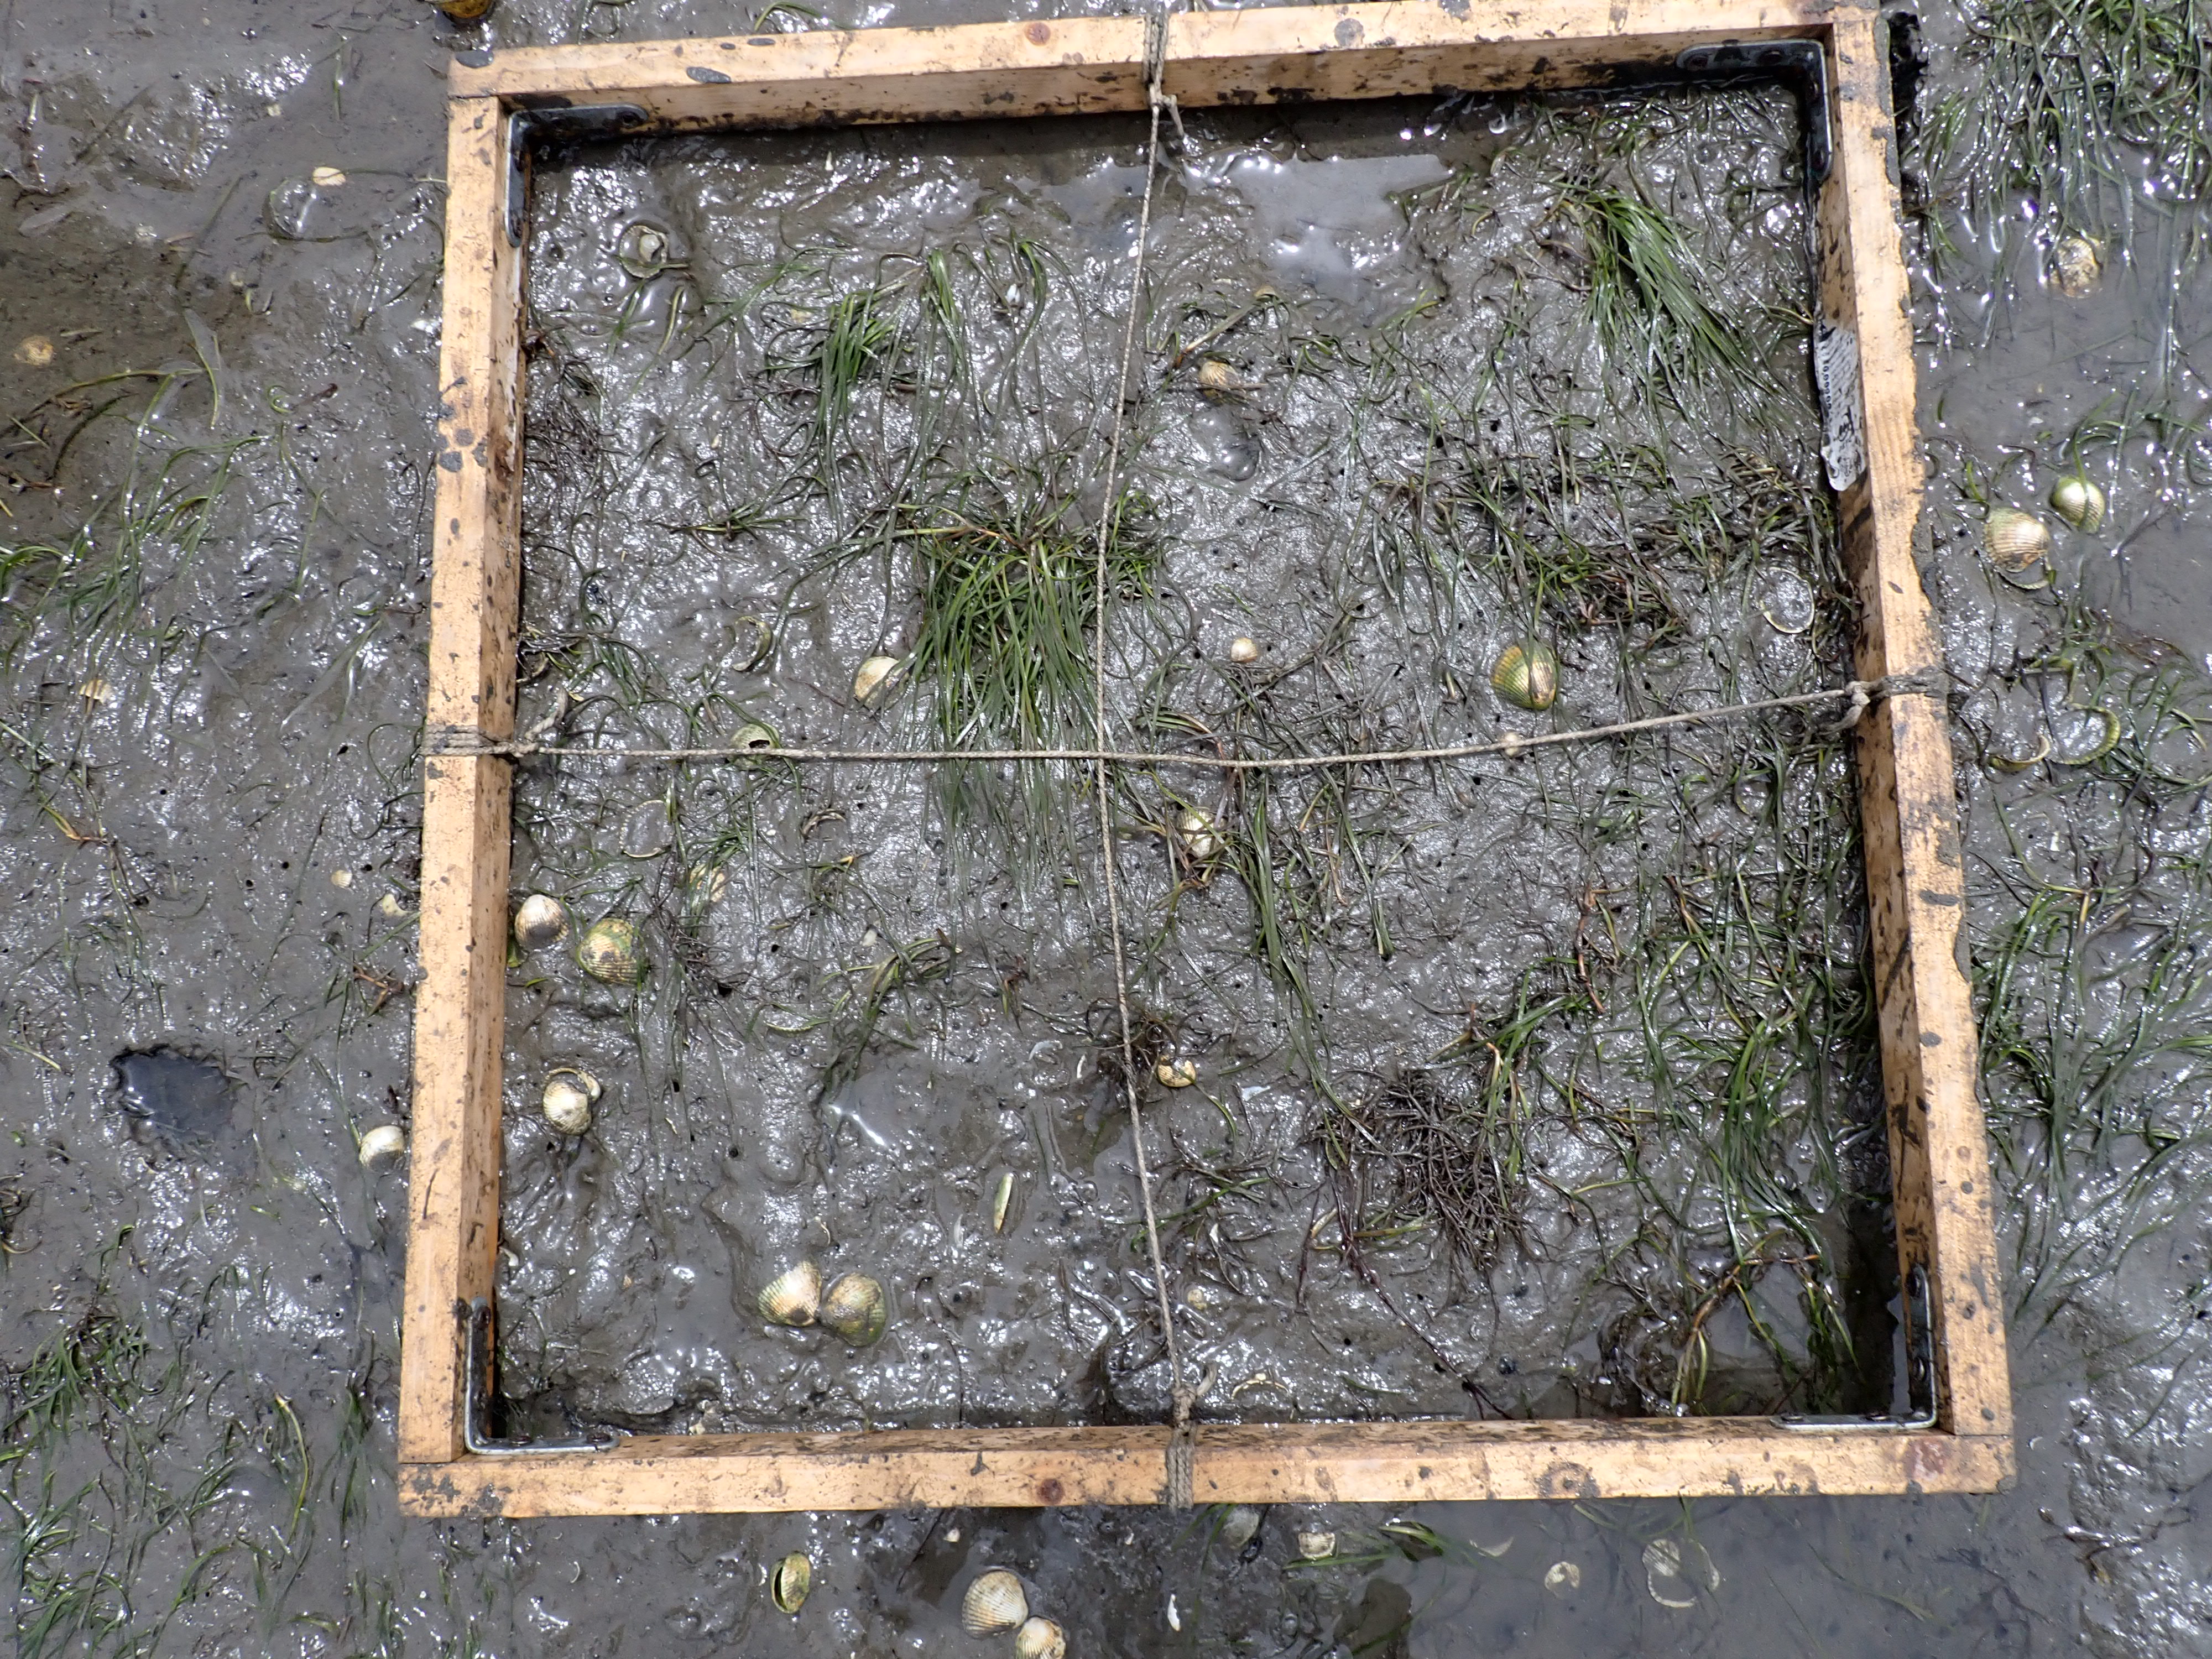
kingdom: Plantae
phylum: Tracheophyta
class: Liliopsida
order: Alismatales
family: Zosteraceae
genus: Zostera
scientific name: Zostera noltii
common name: Dwarf eelgrass
